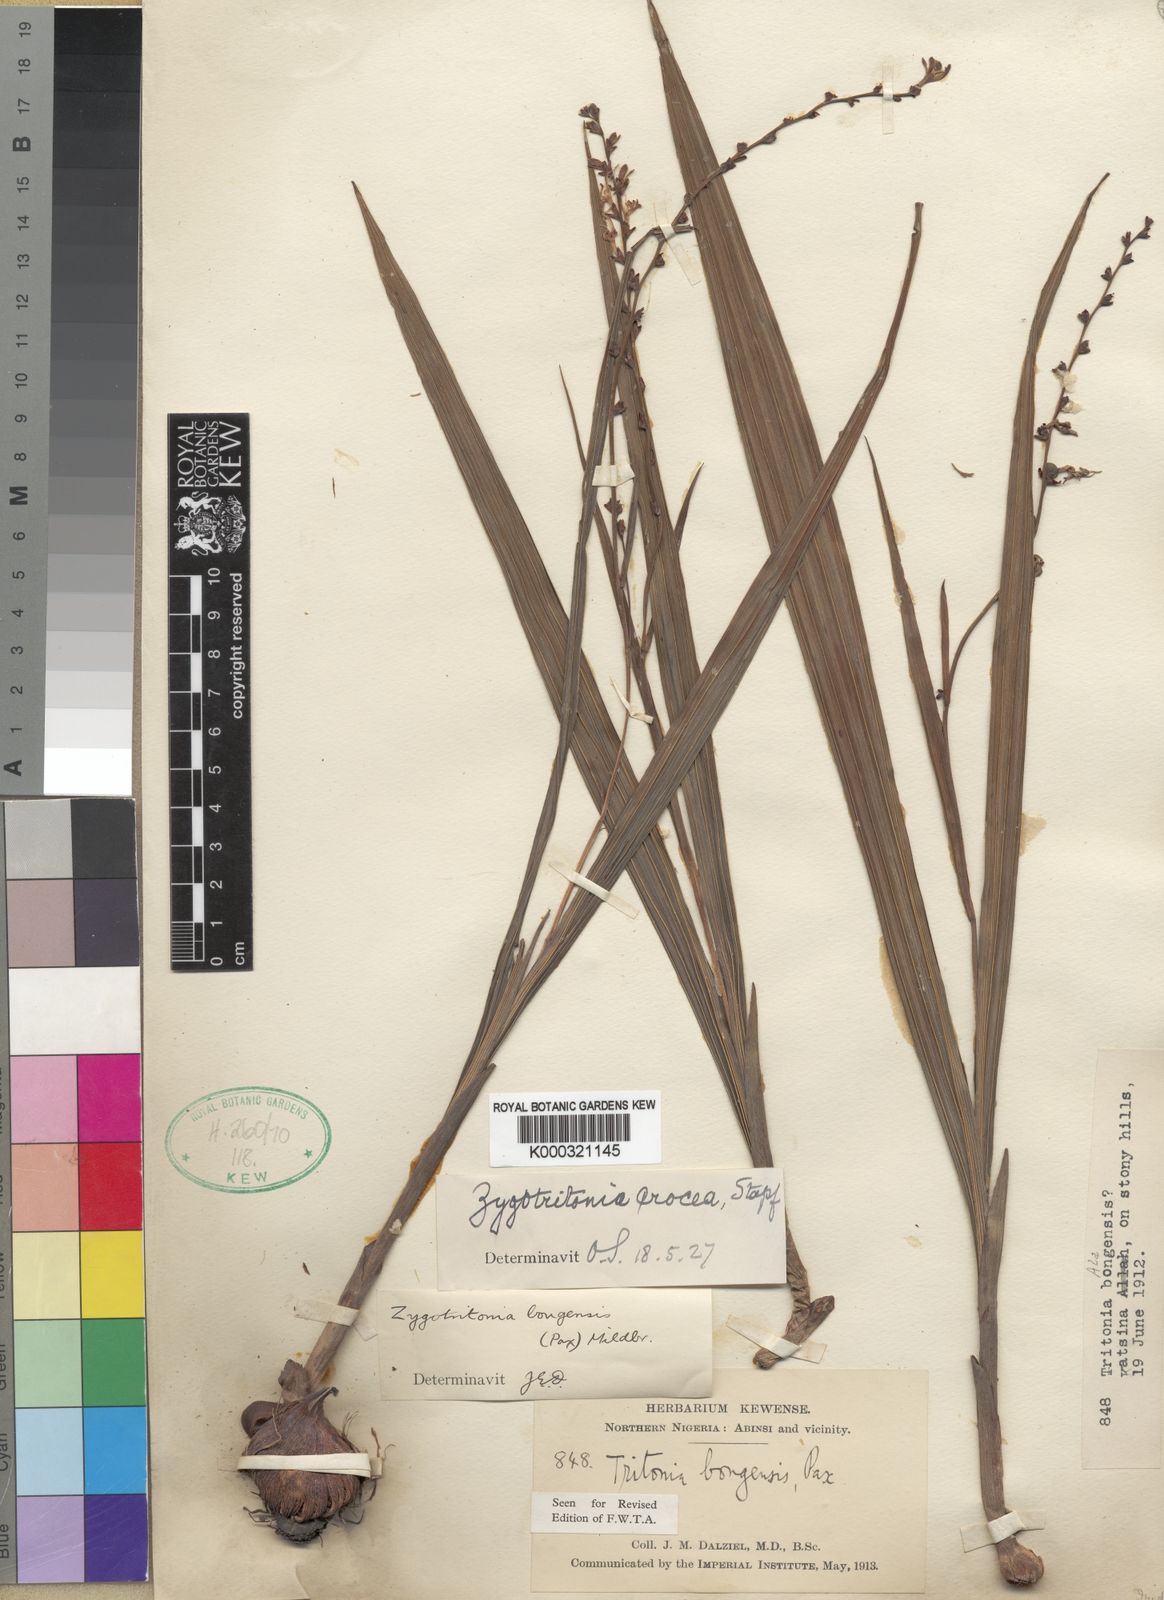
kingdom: Plantae
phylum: Tracheophyta
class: Liliopsida
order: Asparagales
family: Iridaceae
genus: Zygotritonia
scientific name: Zygotritonia bongensis
